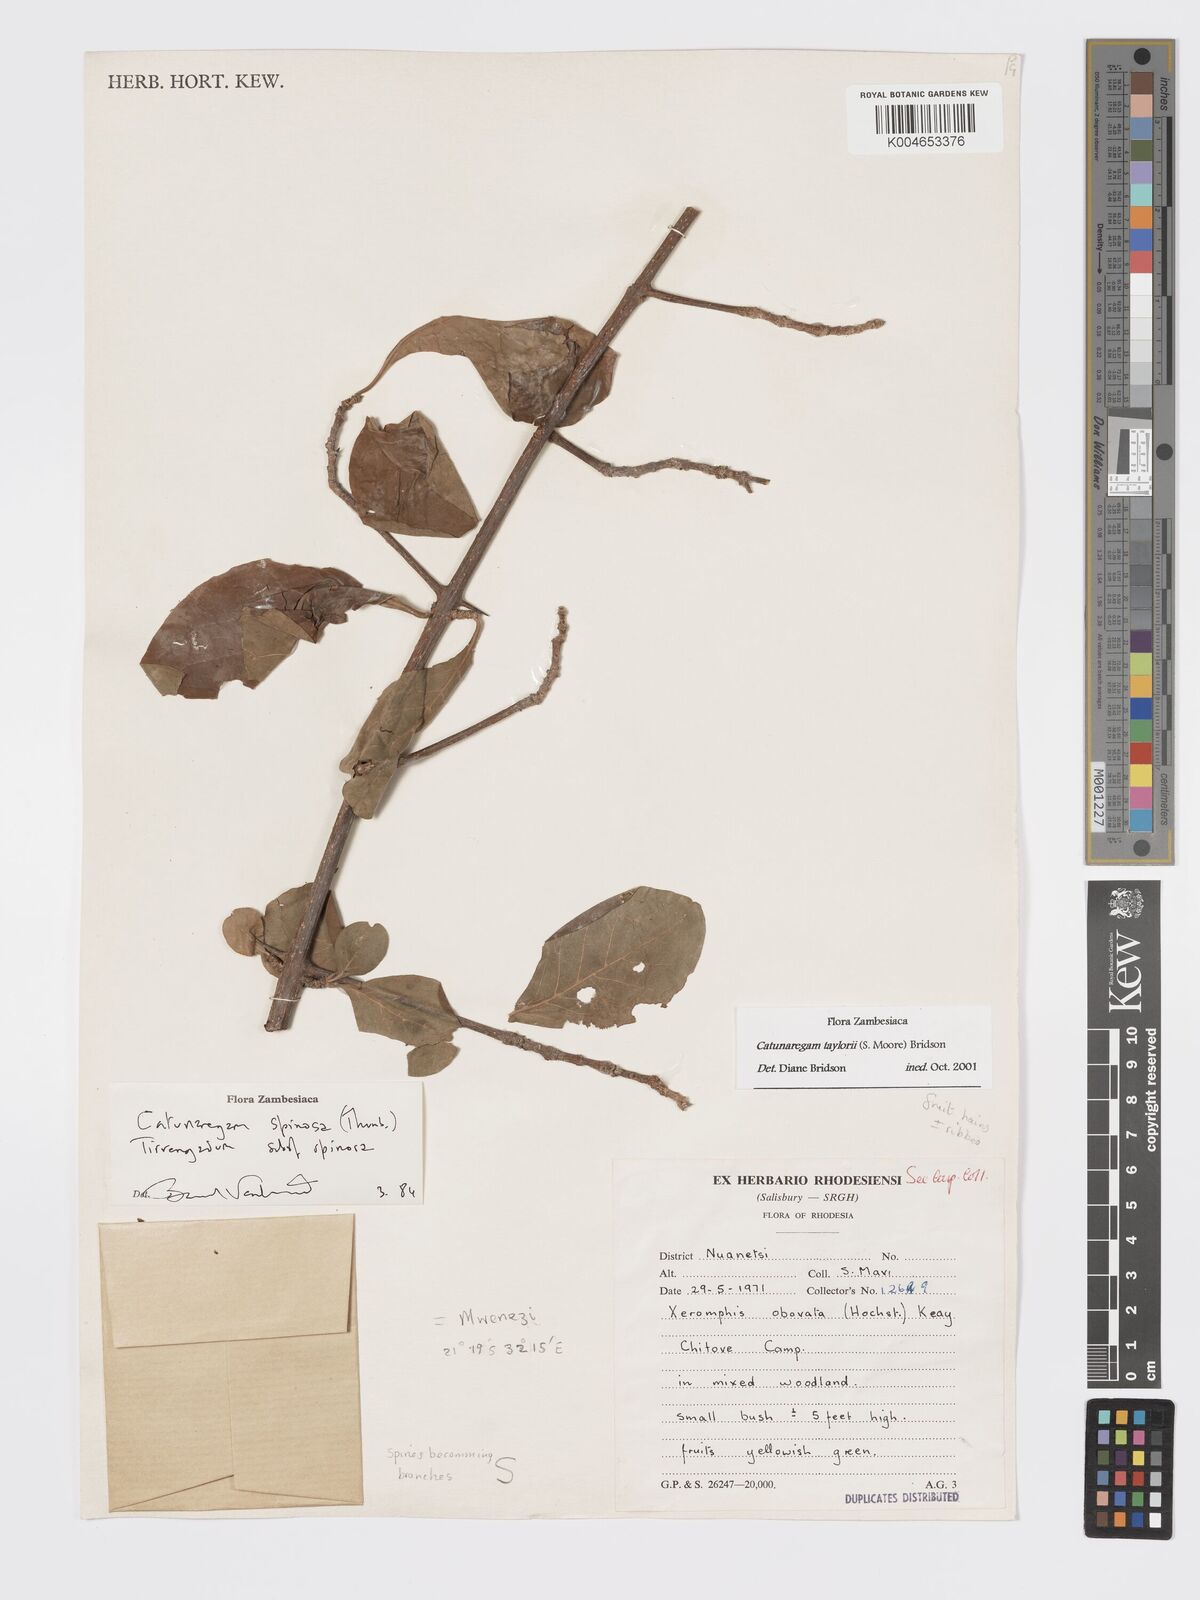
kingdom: Plantae
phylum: Tracheophyta
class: Magnoliopsida
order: Gentianales
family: Rubiaceae
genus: Catunaregam
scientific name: Catunaregam
